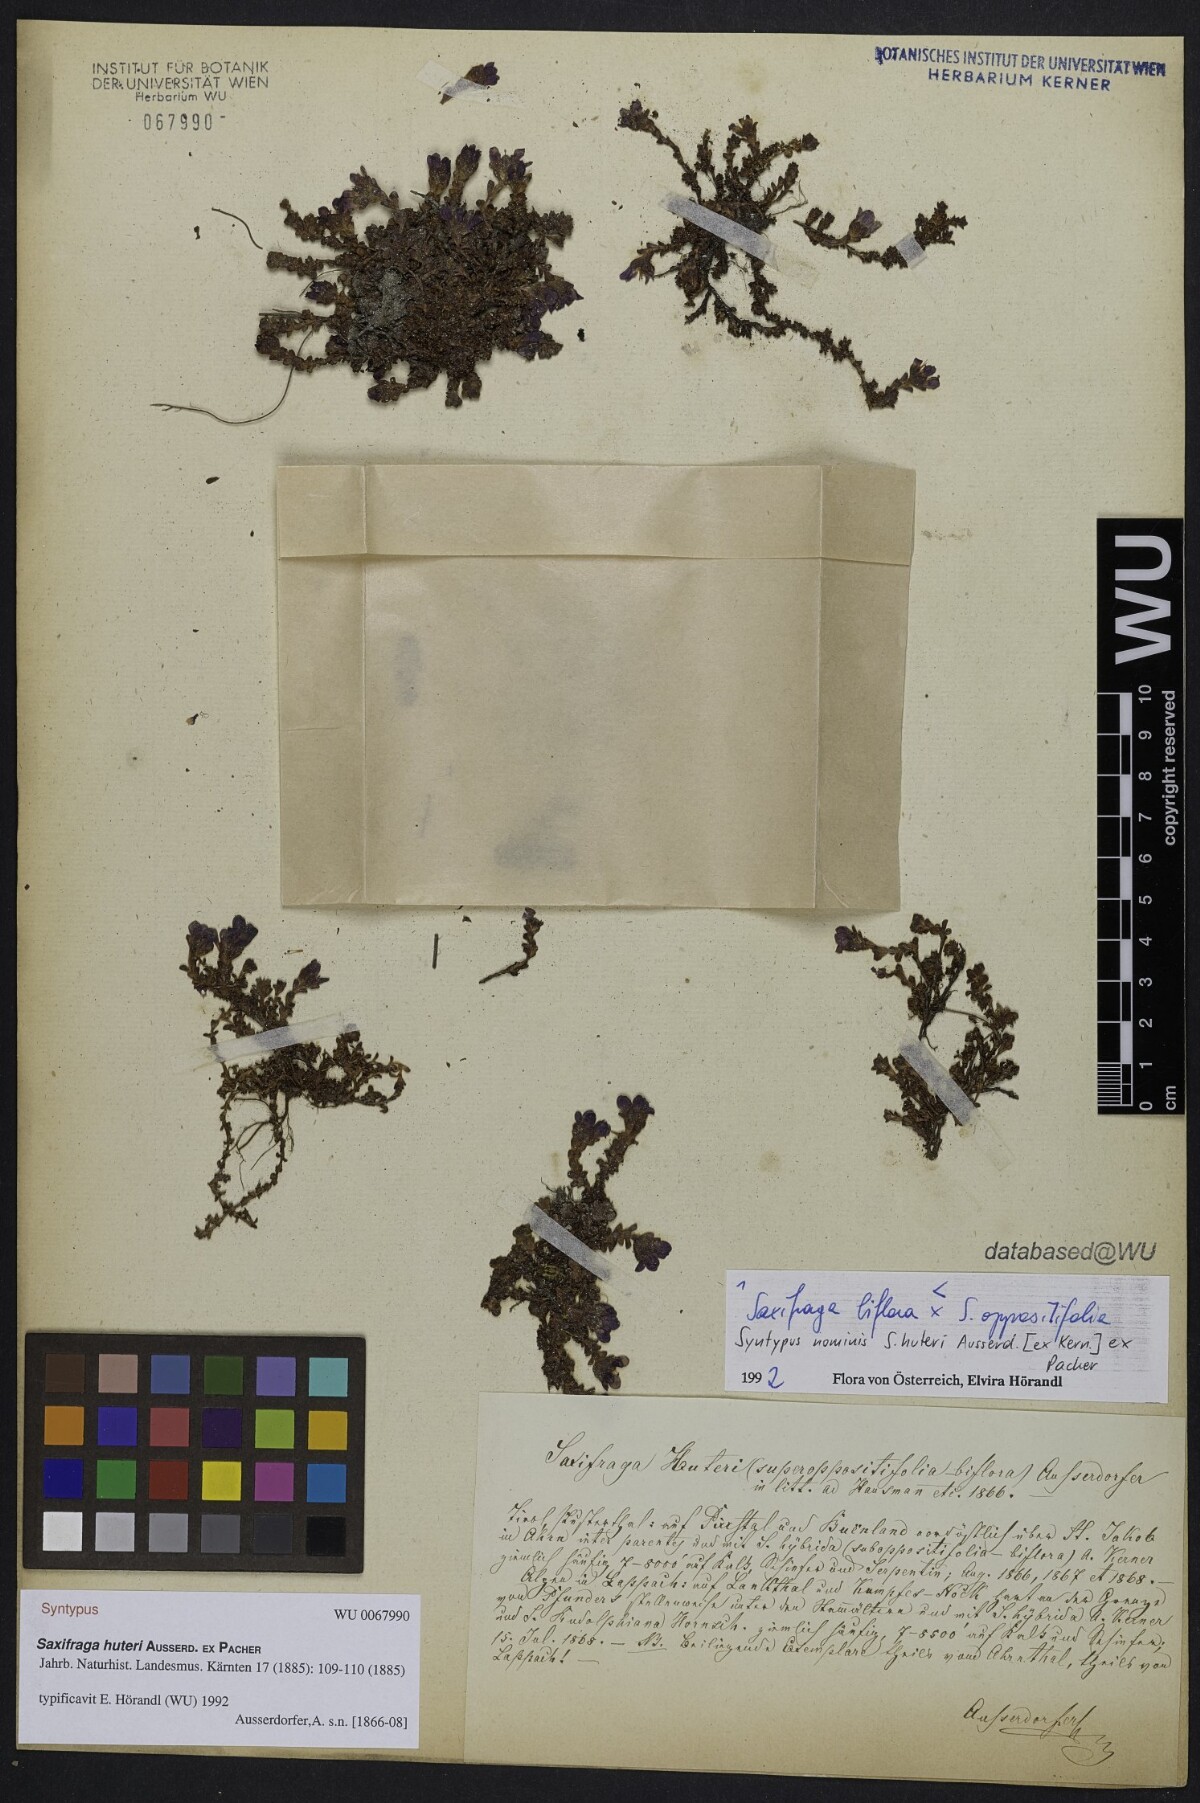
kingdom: Plantae
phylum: Tracheophyta
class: Magnoliopsida
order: Saxifragales
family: Saxifragaceae
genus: Saxifraga
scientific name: Saxifraga
